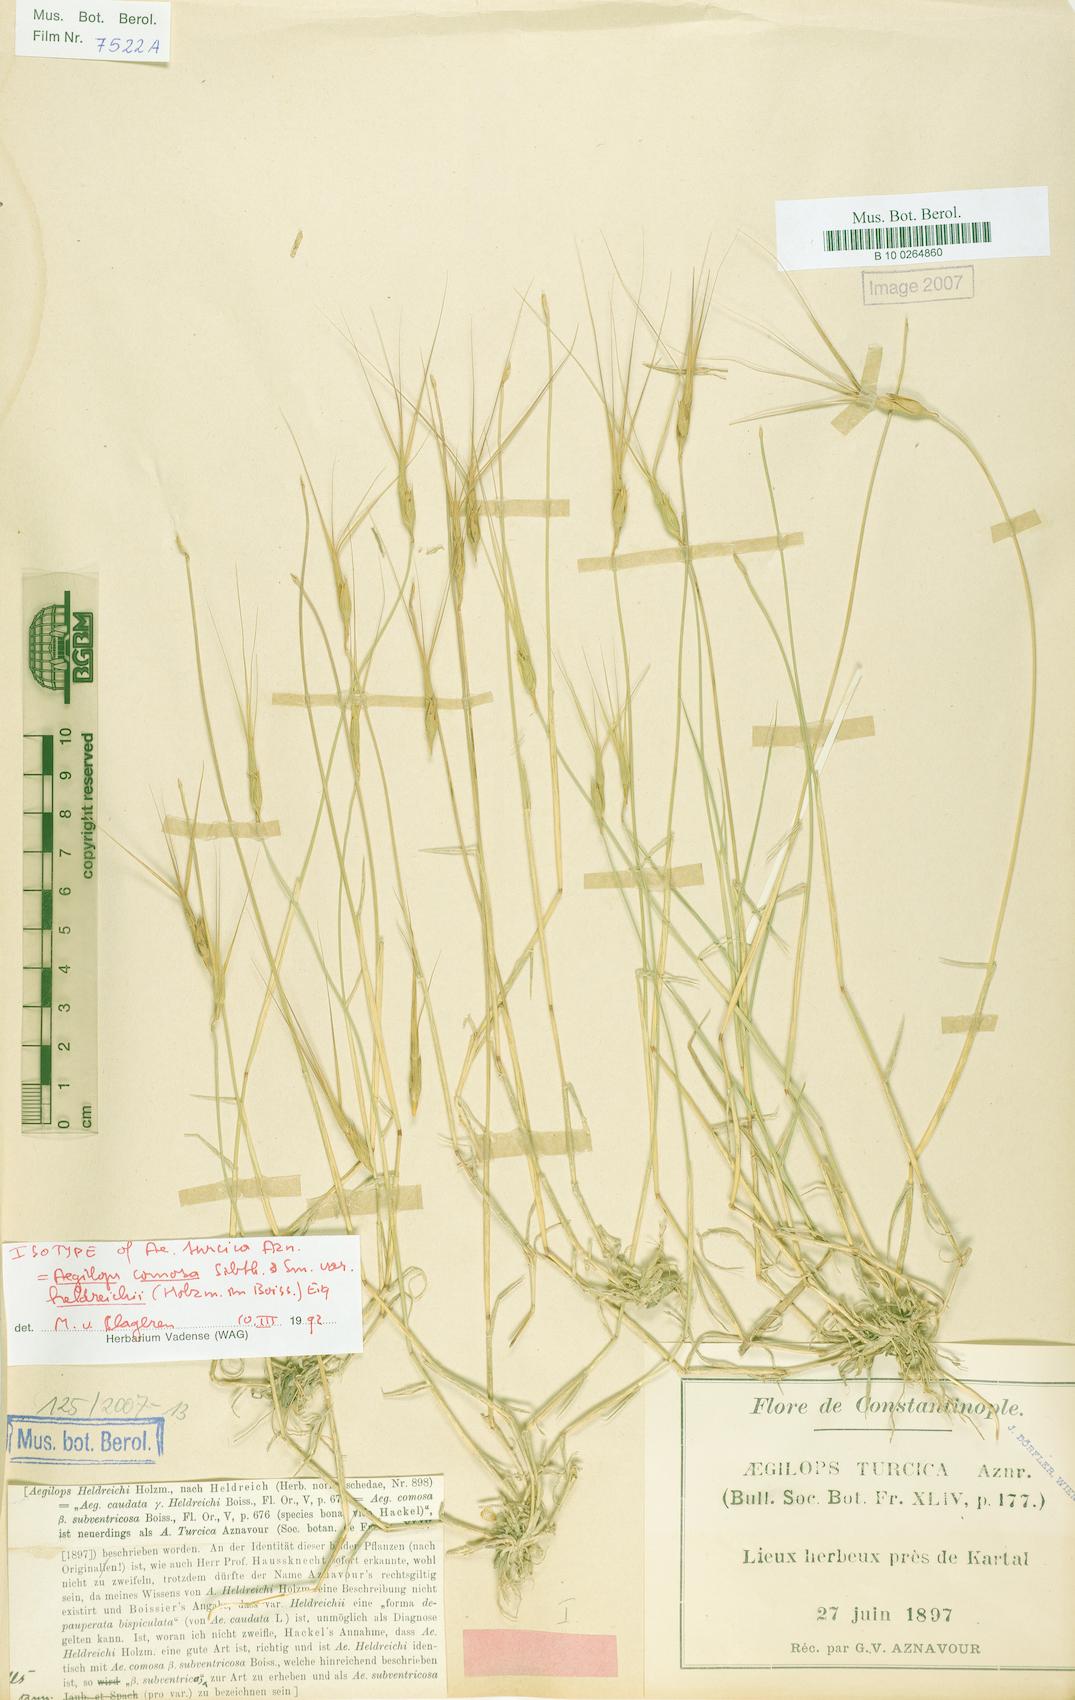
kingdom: Plantae
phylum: Tracheophyta
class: Liliopsida
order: Poales
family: Poaceae
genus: Aegilops
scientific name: Aegilops comosa
